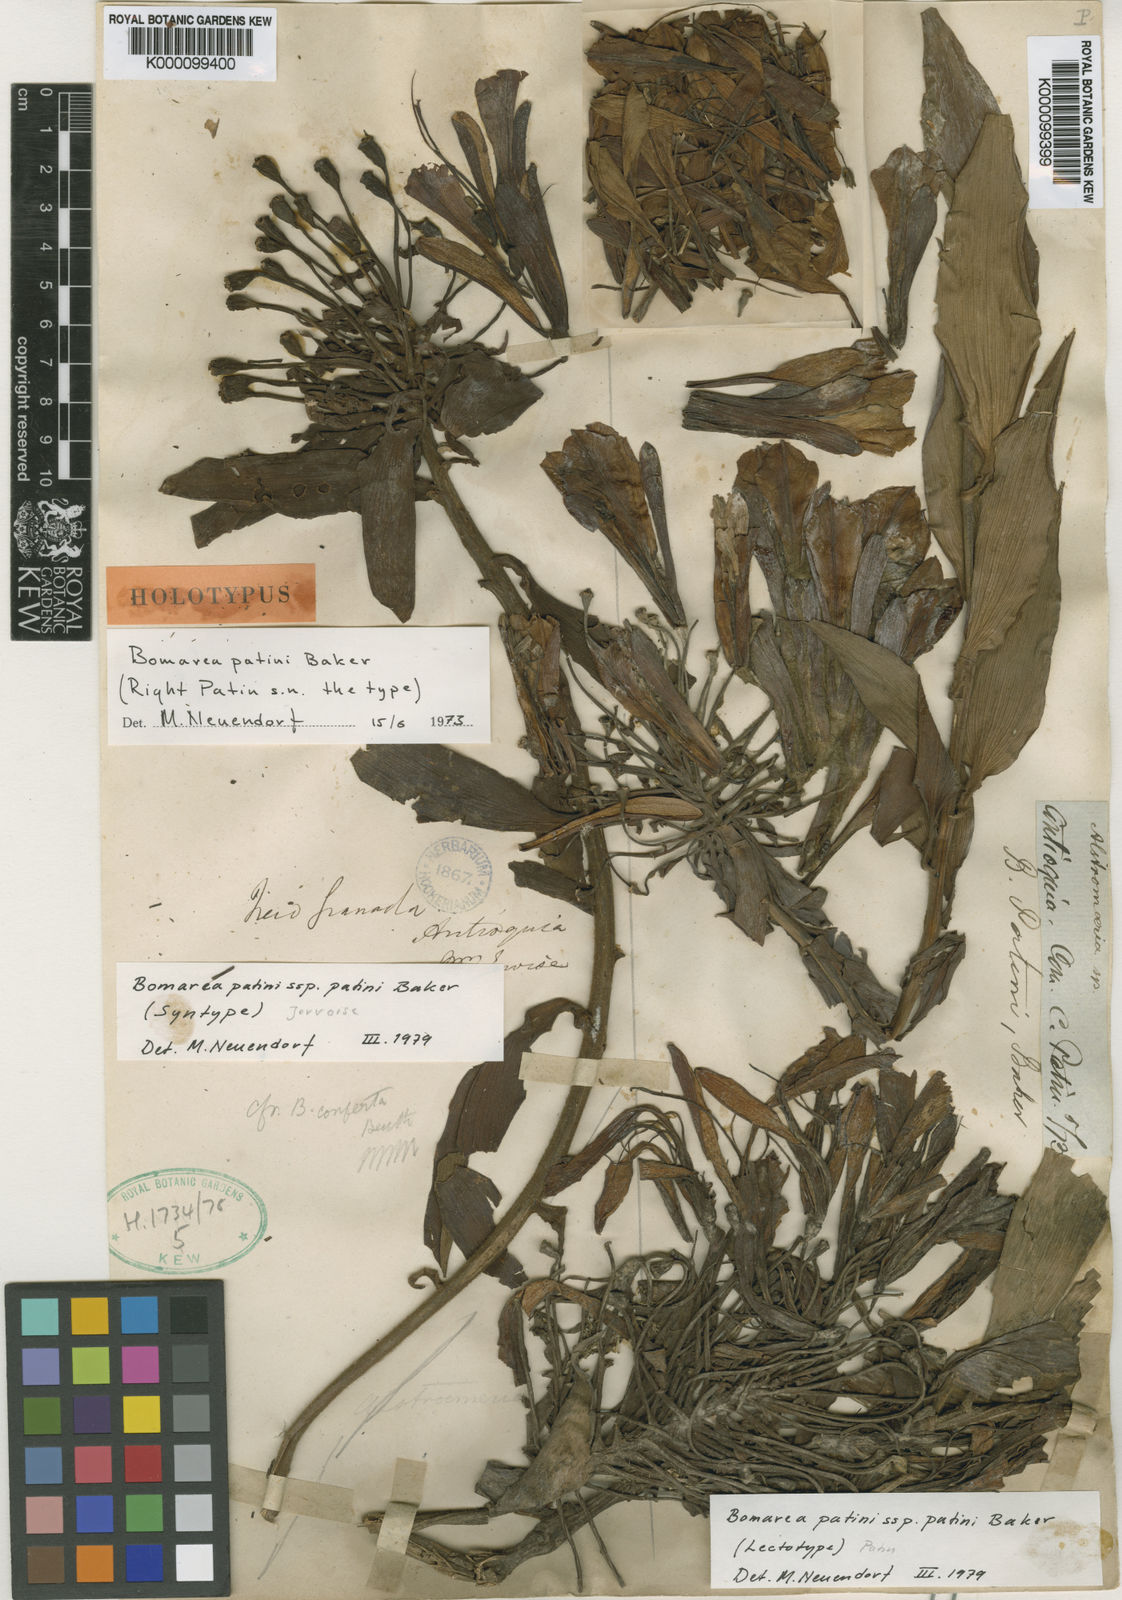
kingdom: Plantae
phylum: Tracheophyta
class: Liliopsida
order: Liliales
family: Alstroemeriaceae
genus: Bomarea
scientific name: Bomarea patinii
